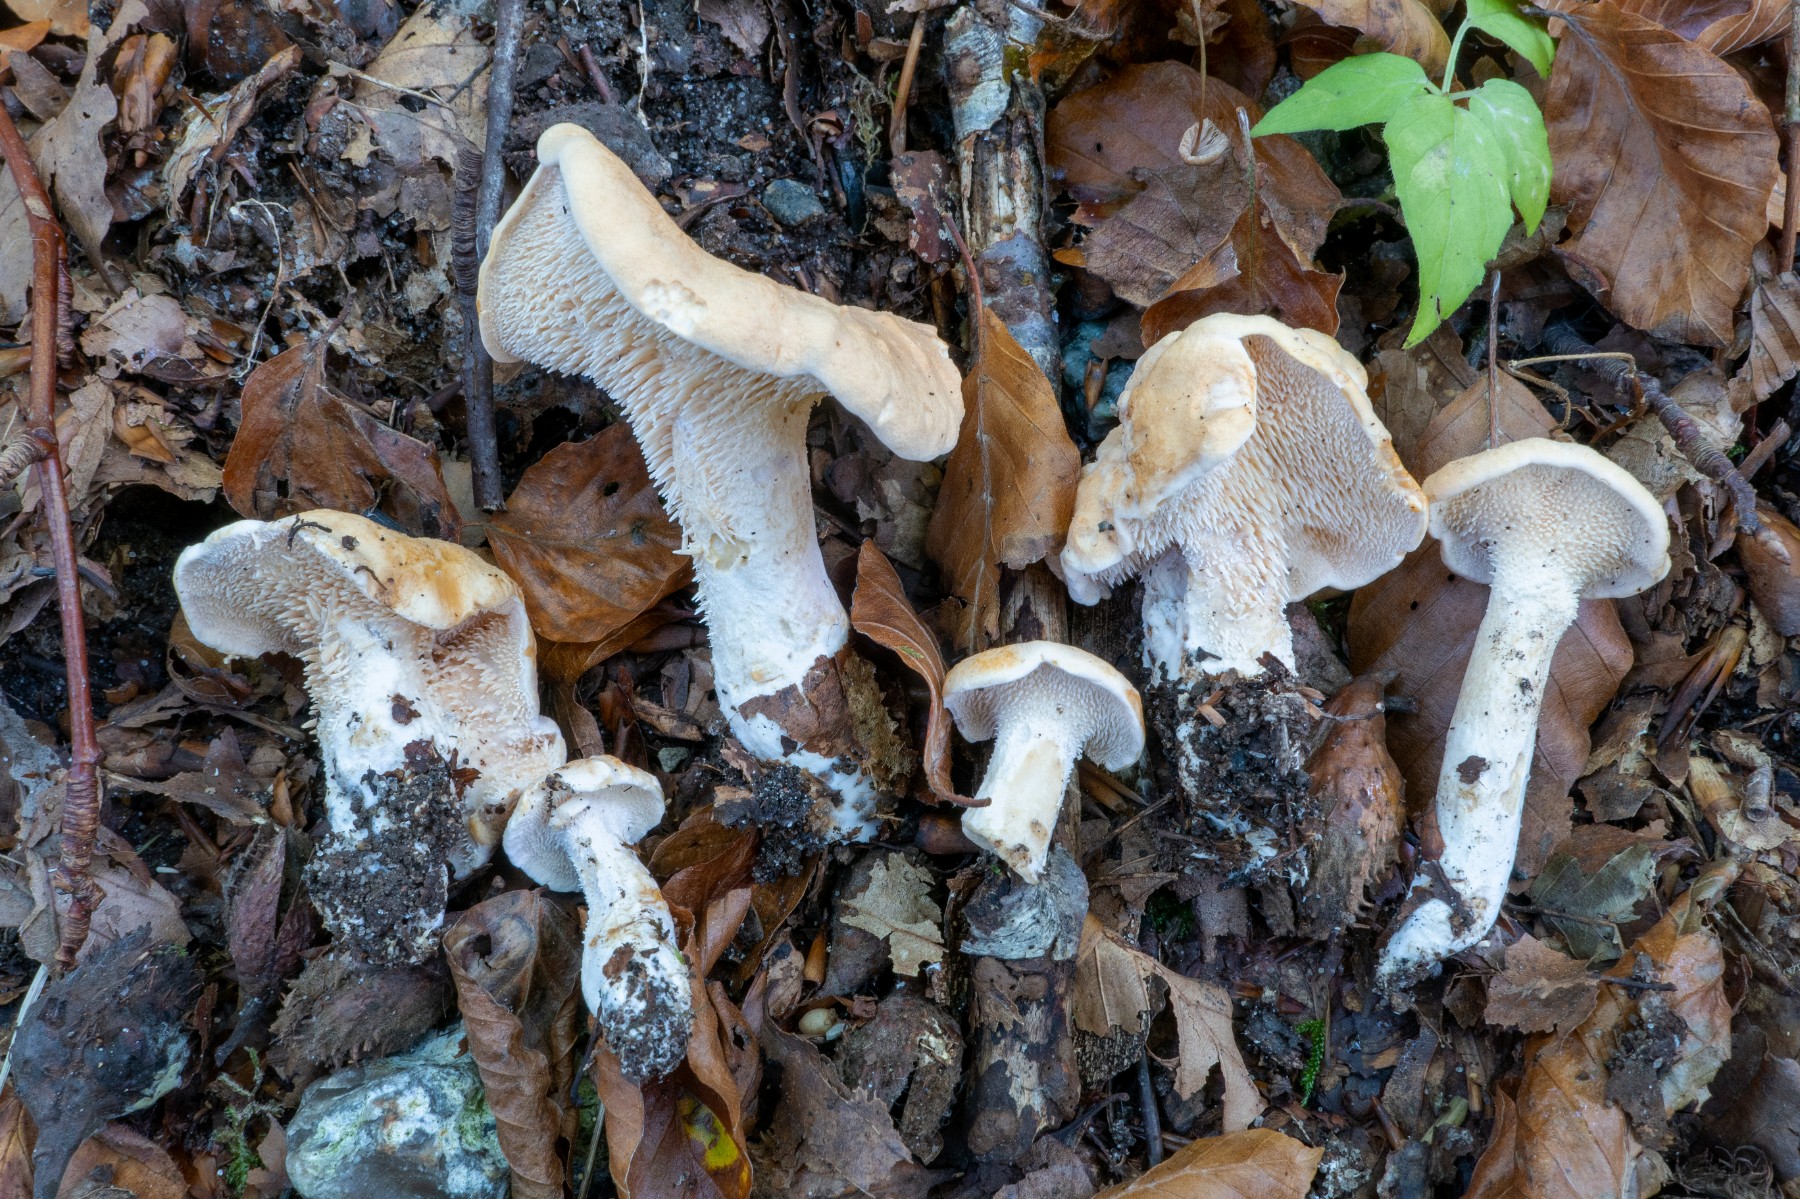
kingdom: Fungi
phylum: Basidiomycota
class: Agaricomycetes
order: Cantharellales
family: Hydnaceae
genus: Hydnum
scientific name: Hydnum
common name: pigsvamp
